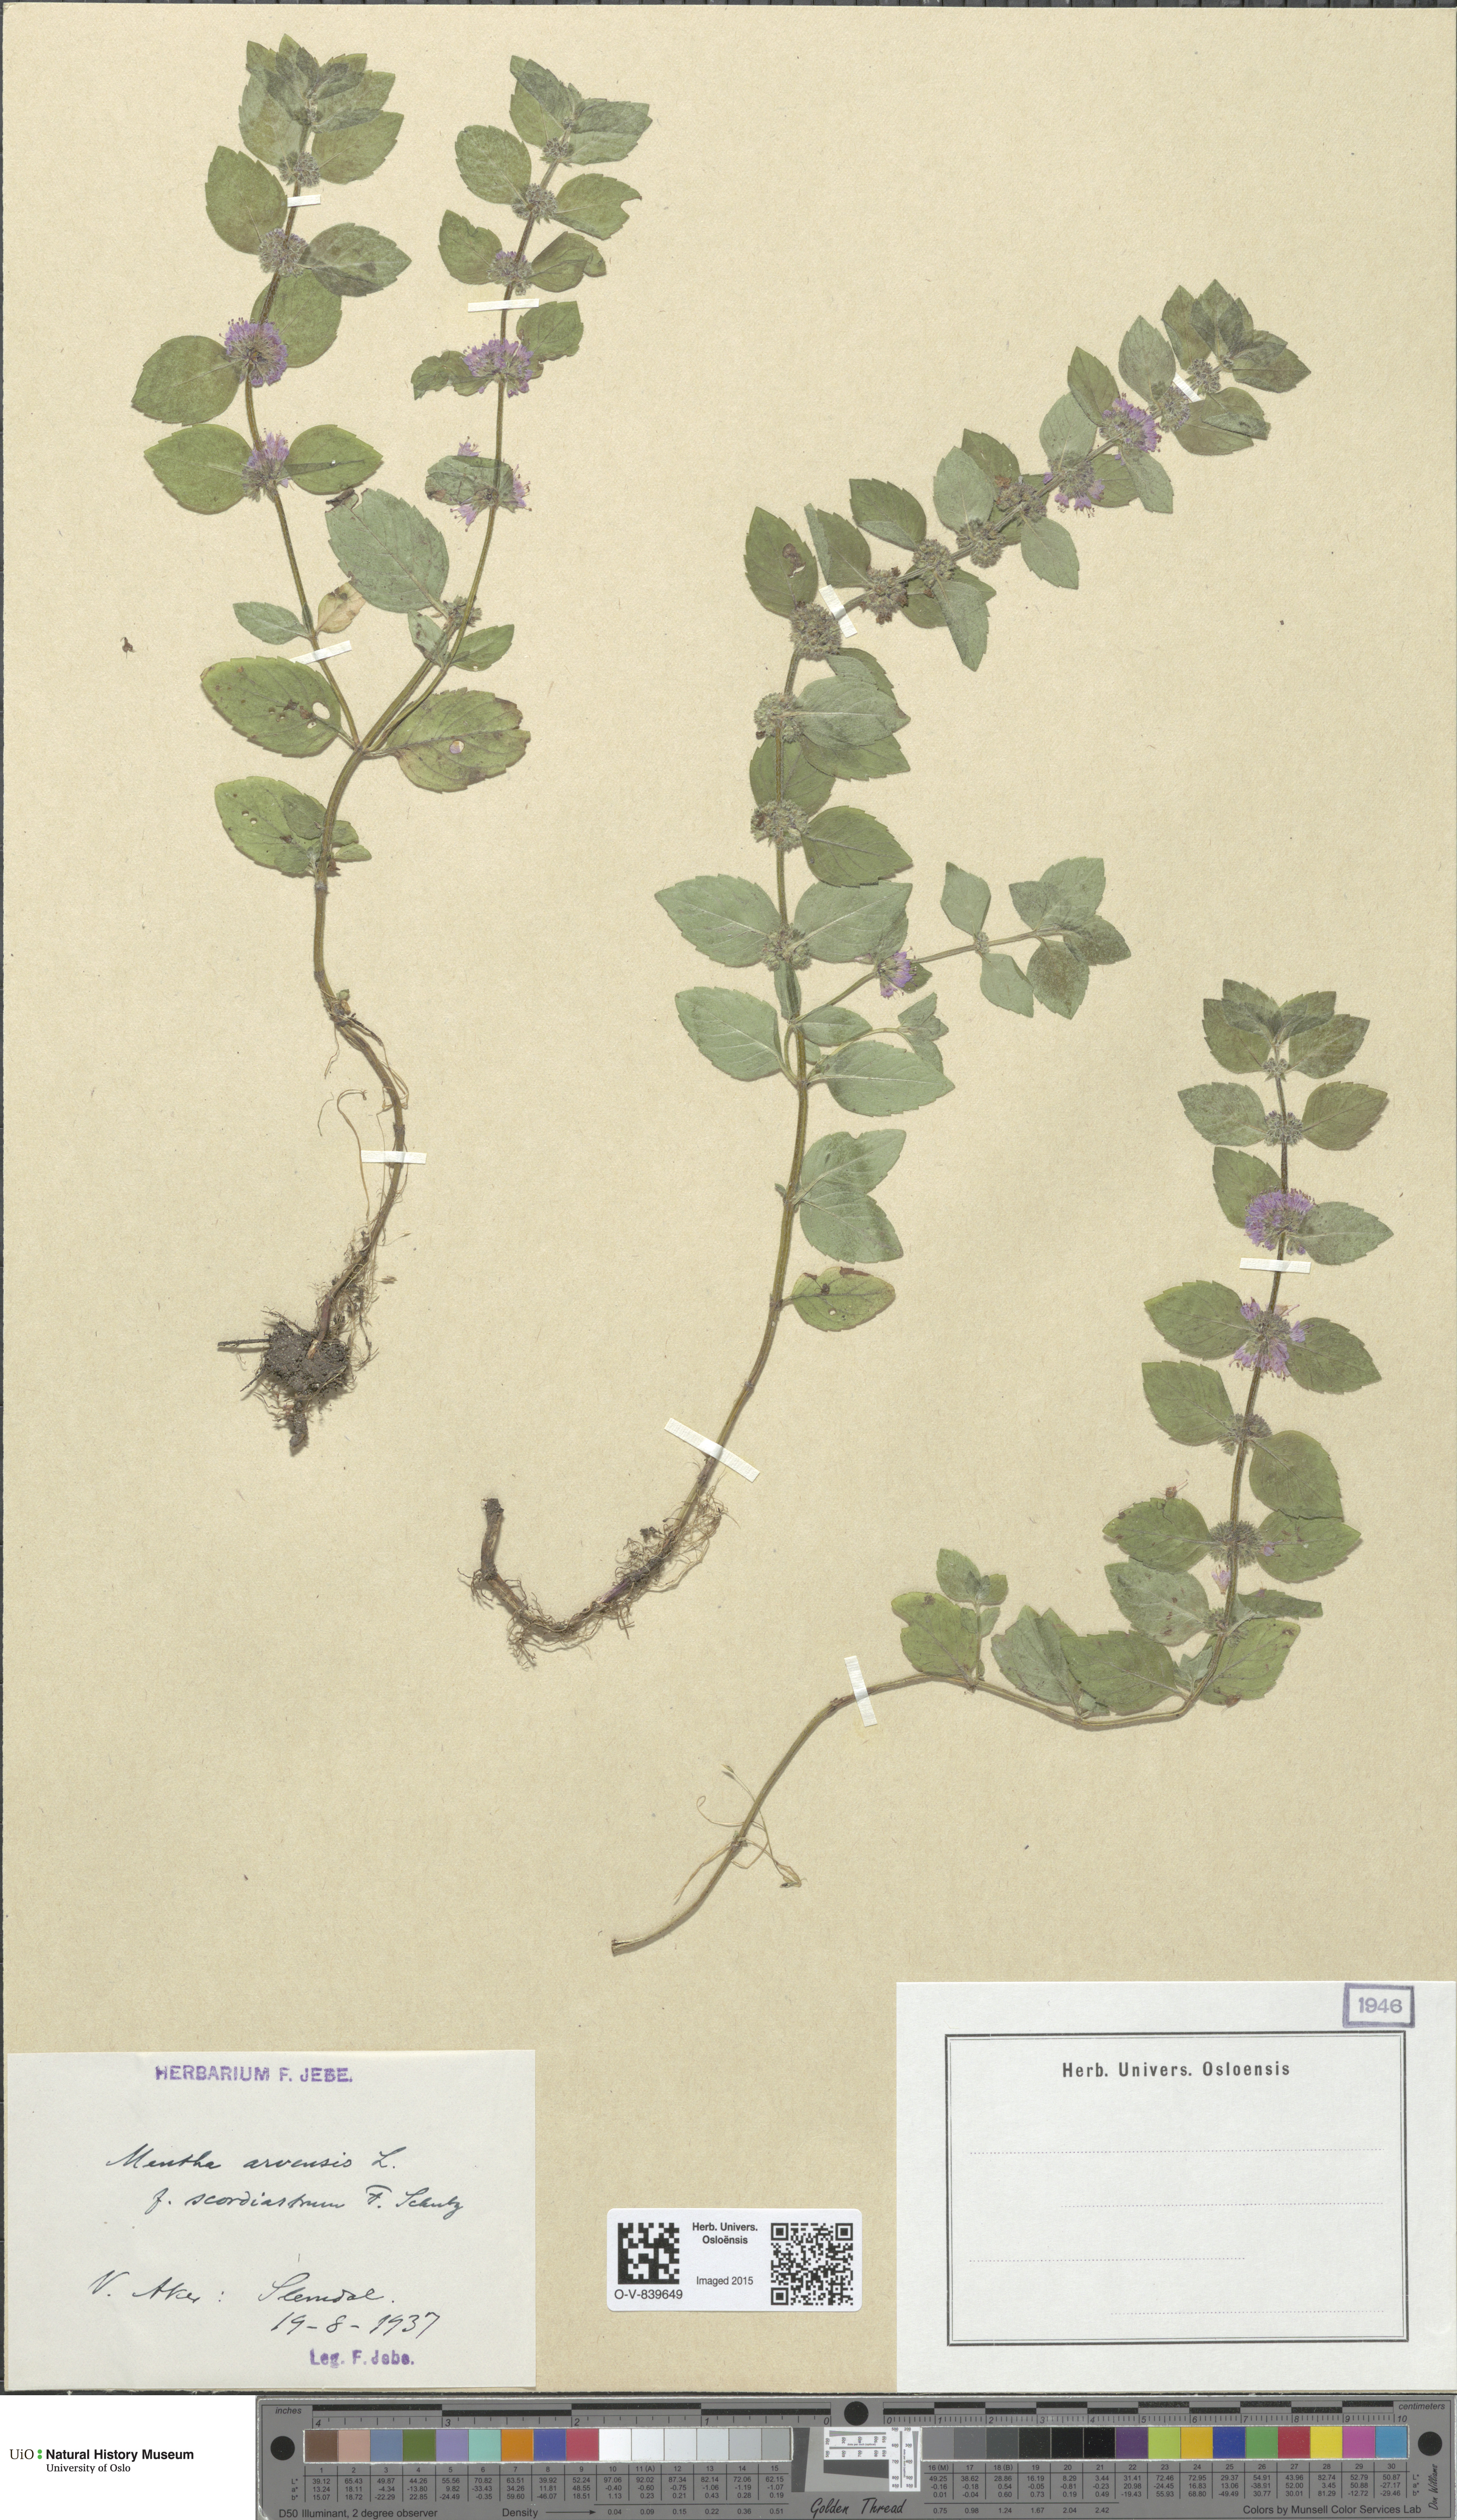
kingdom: Plantae
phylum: Tracheophyta
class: Magnoliopsida
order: Lamiales
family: Lamiaceae
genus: Mentha
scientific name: Mentha arvensis
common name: Corn mint
